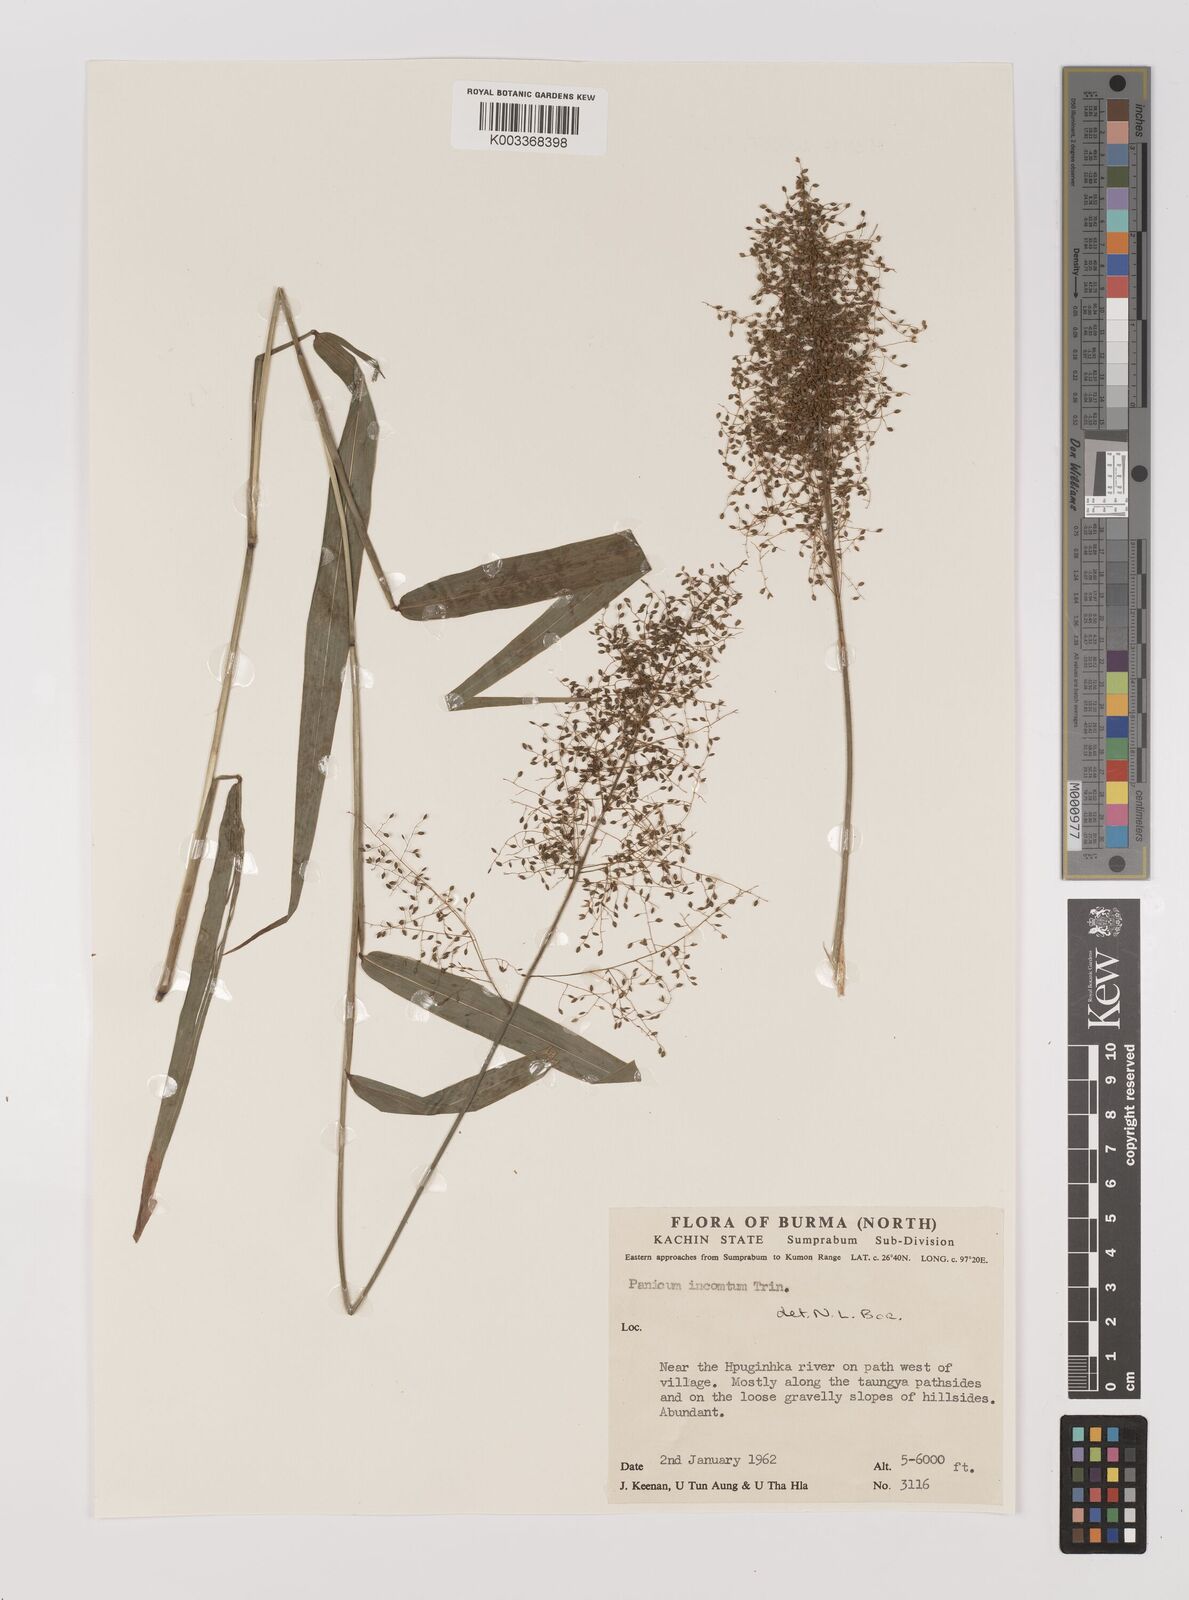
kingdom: Plantae
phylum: Tracheophyta
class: Liliopsida
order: Poales
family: Poaceae
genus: Panicum
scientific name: Panicum incomtum
